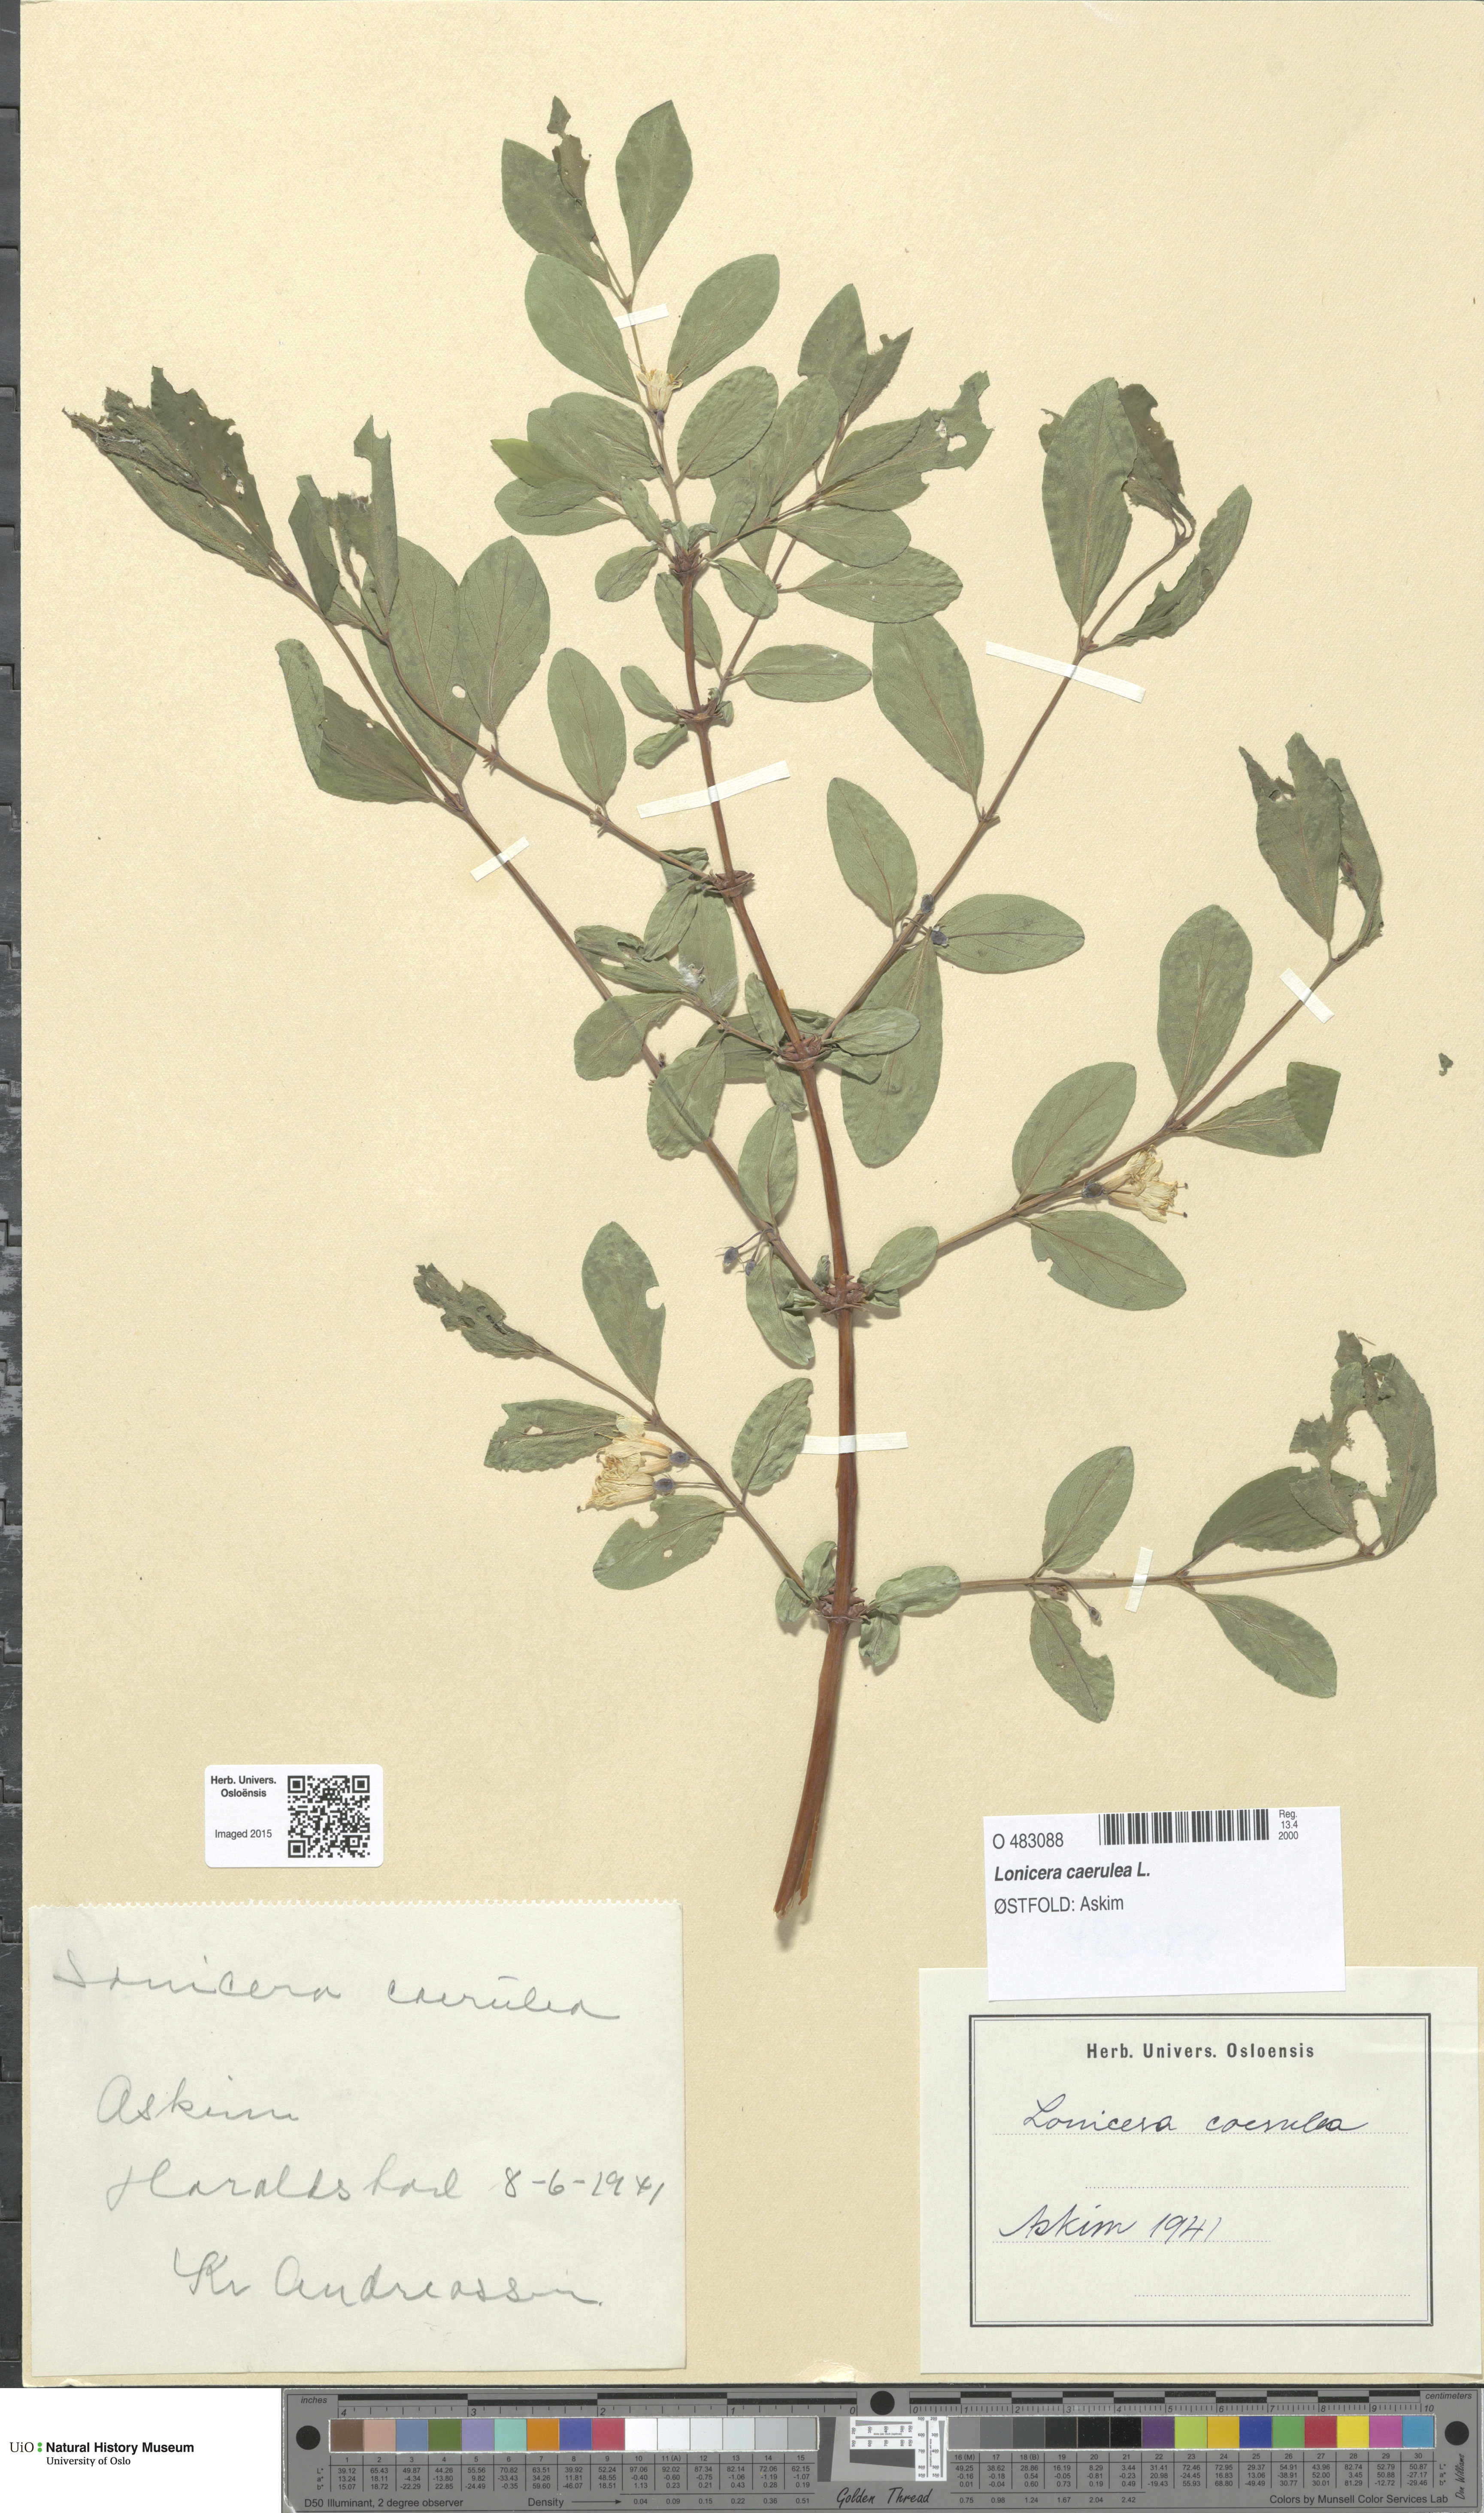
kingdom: Plantae
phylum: Tracheophyta
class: Magnoliopsida
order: Dipsacales
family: Caprifoliaceae
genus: Lonicera
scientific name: Lonicera caerulea
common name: Blue honeysuckle
